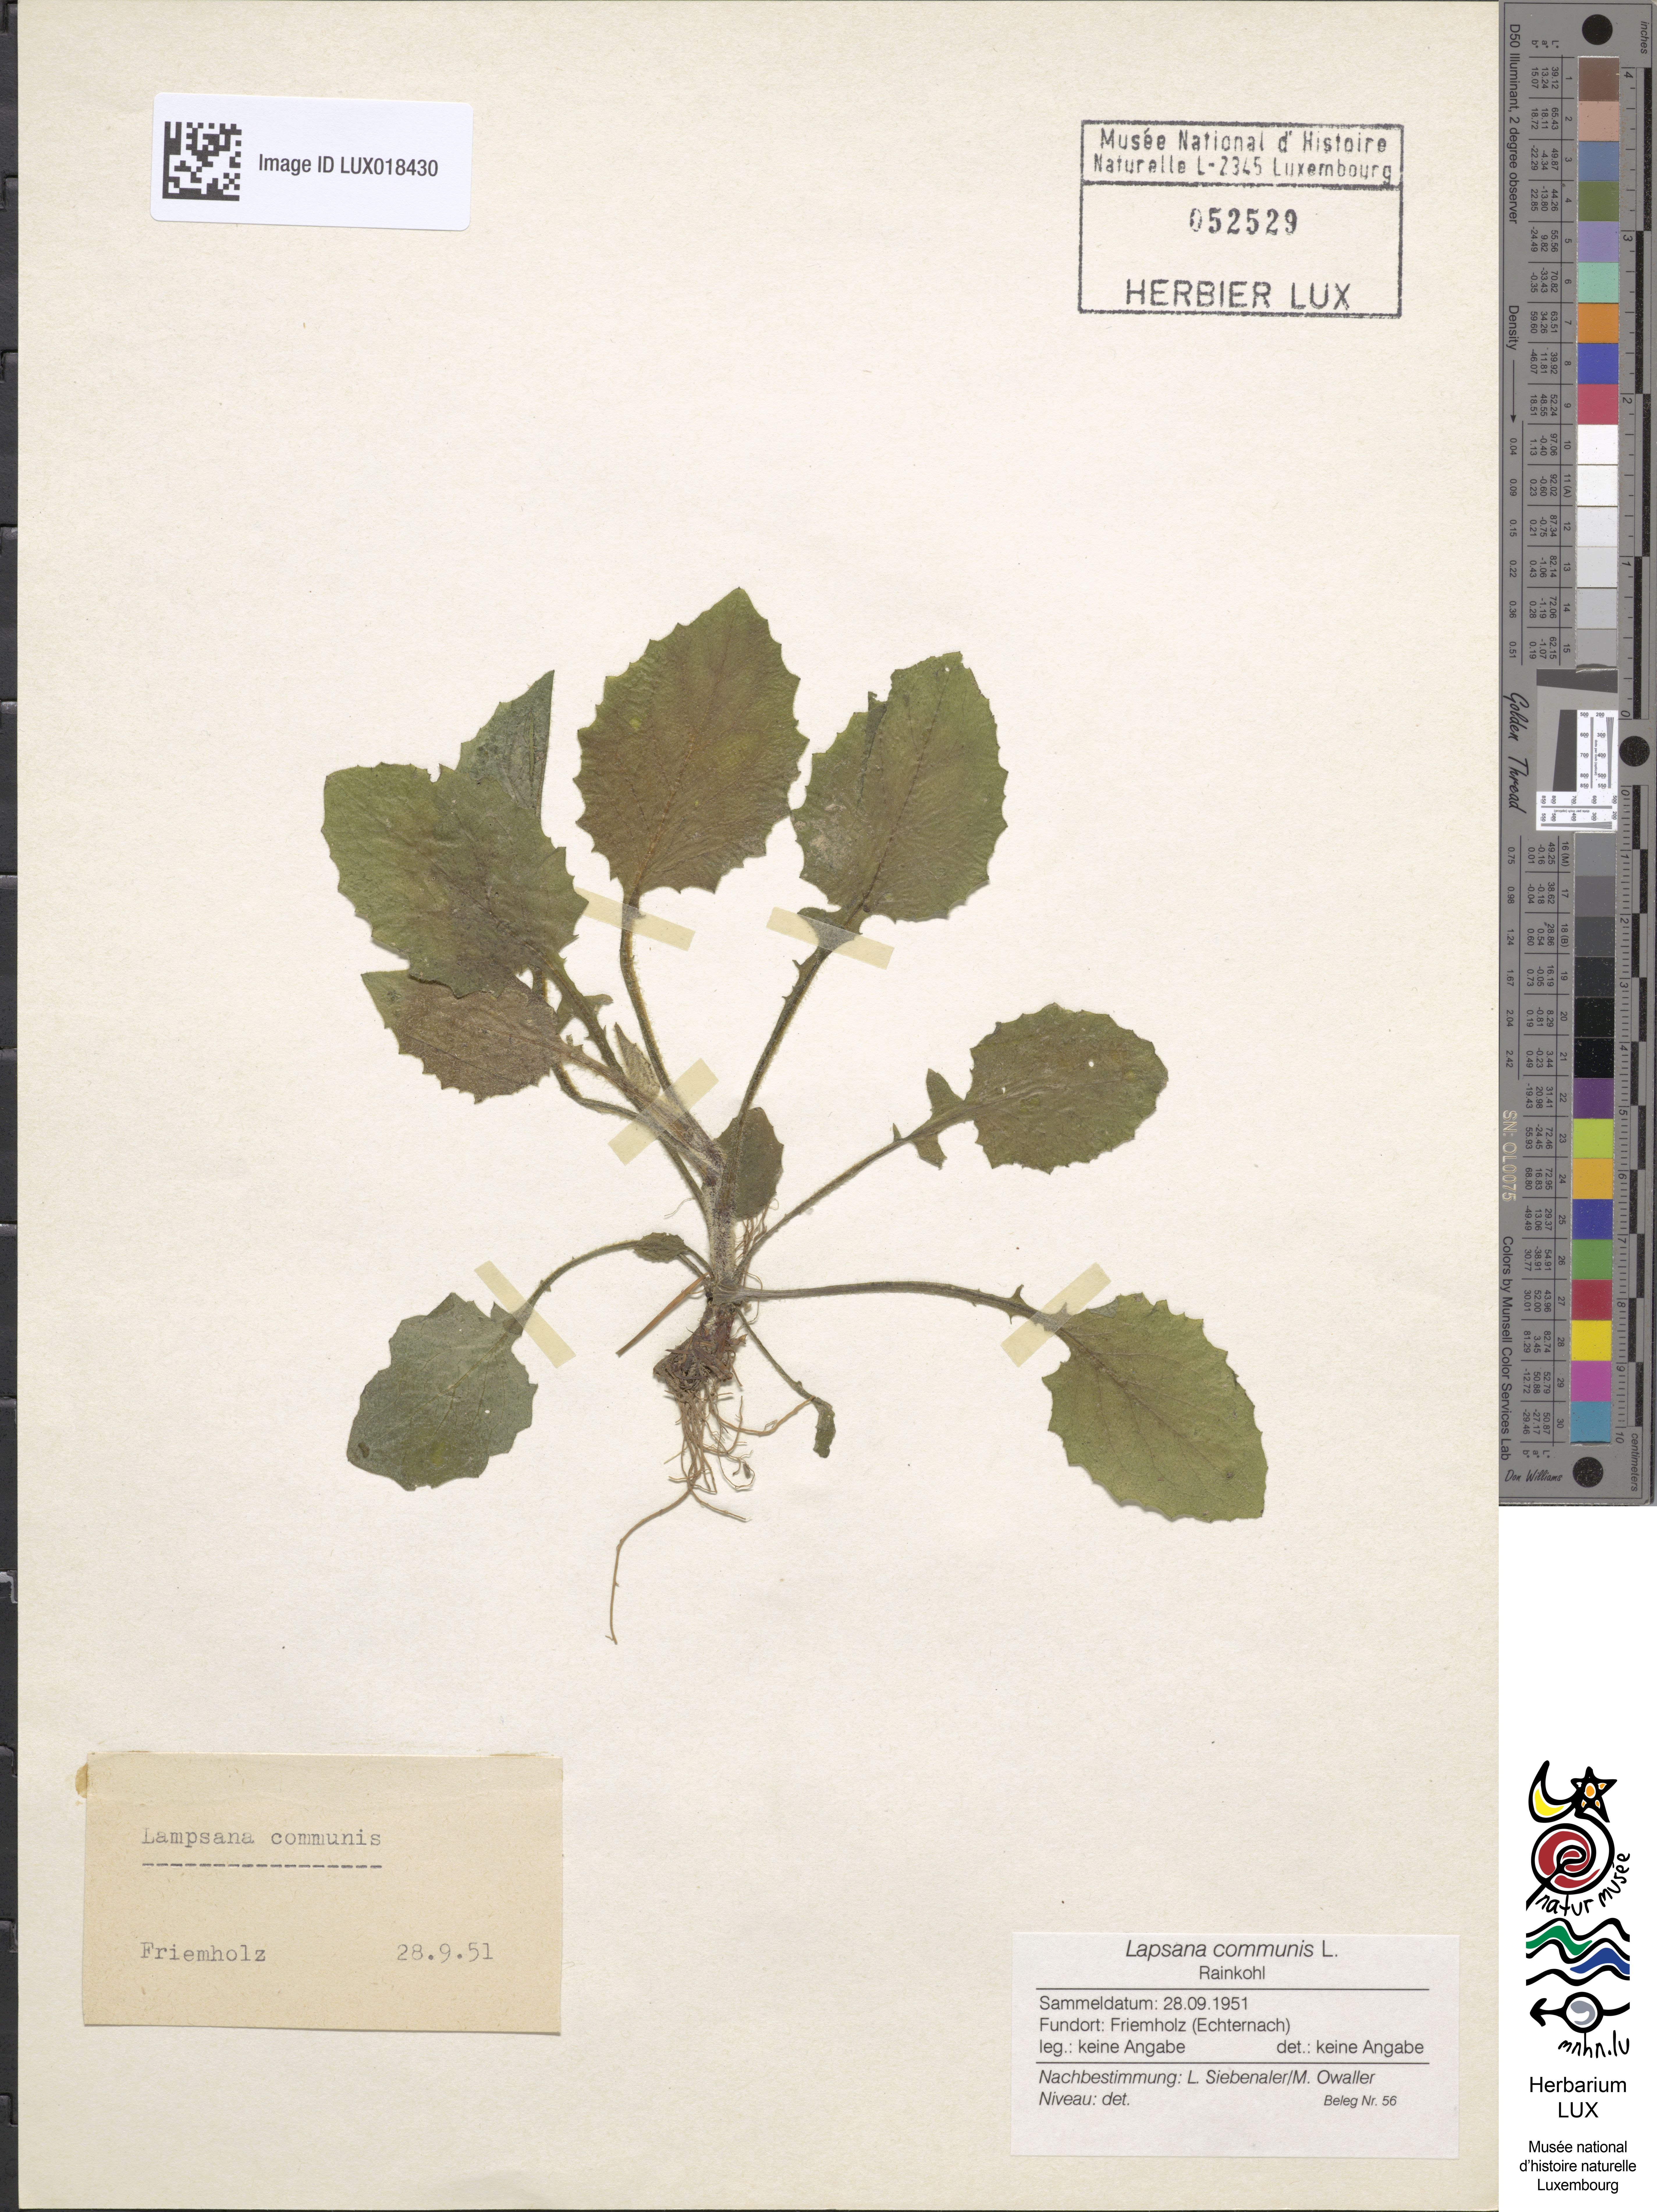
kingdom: Plantae
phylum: Tracheophyta
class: Magnoliopsida
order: Asterales
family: Asteraceae
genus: Lapsana
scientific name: Lapsana communis
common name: Nipplewort
